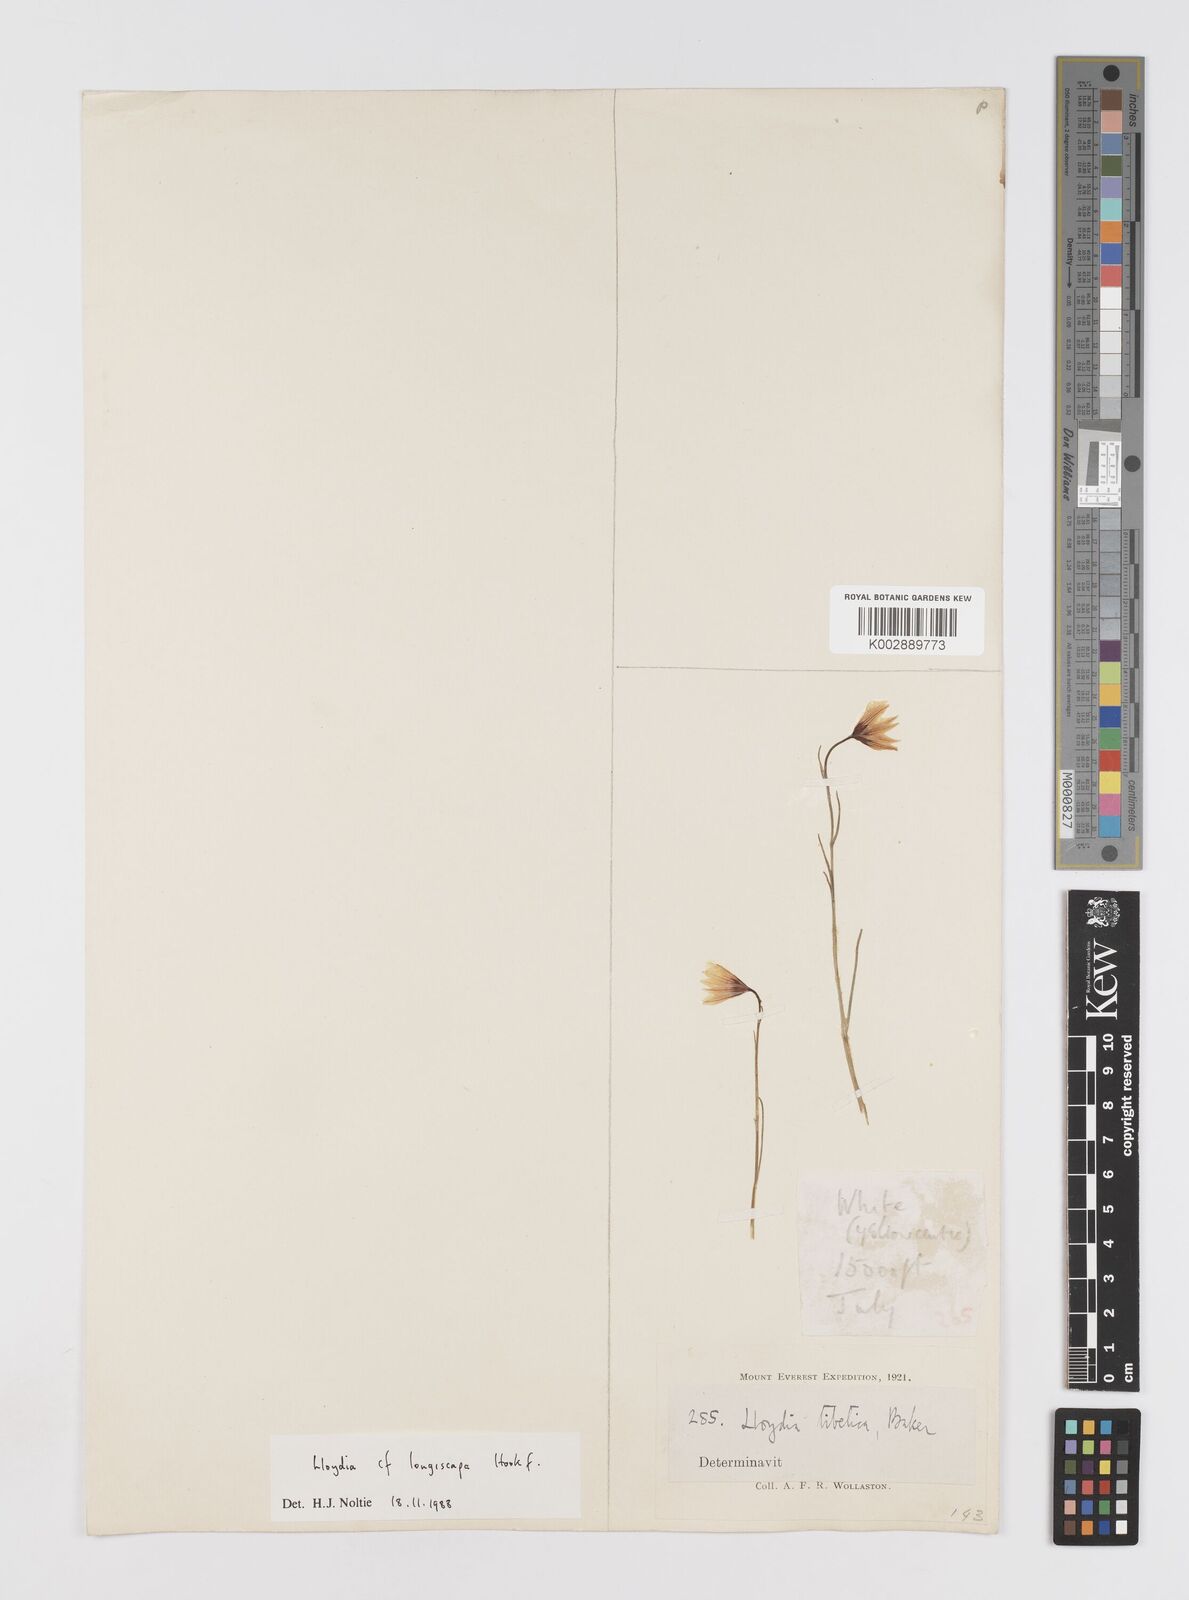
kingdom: Plantae
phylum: Tracheophyta
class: Liliopsida
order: Liliales
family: Liliaceae
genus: Gagea
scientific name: Gagea longiscapa
